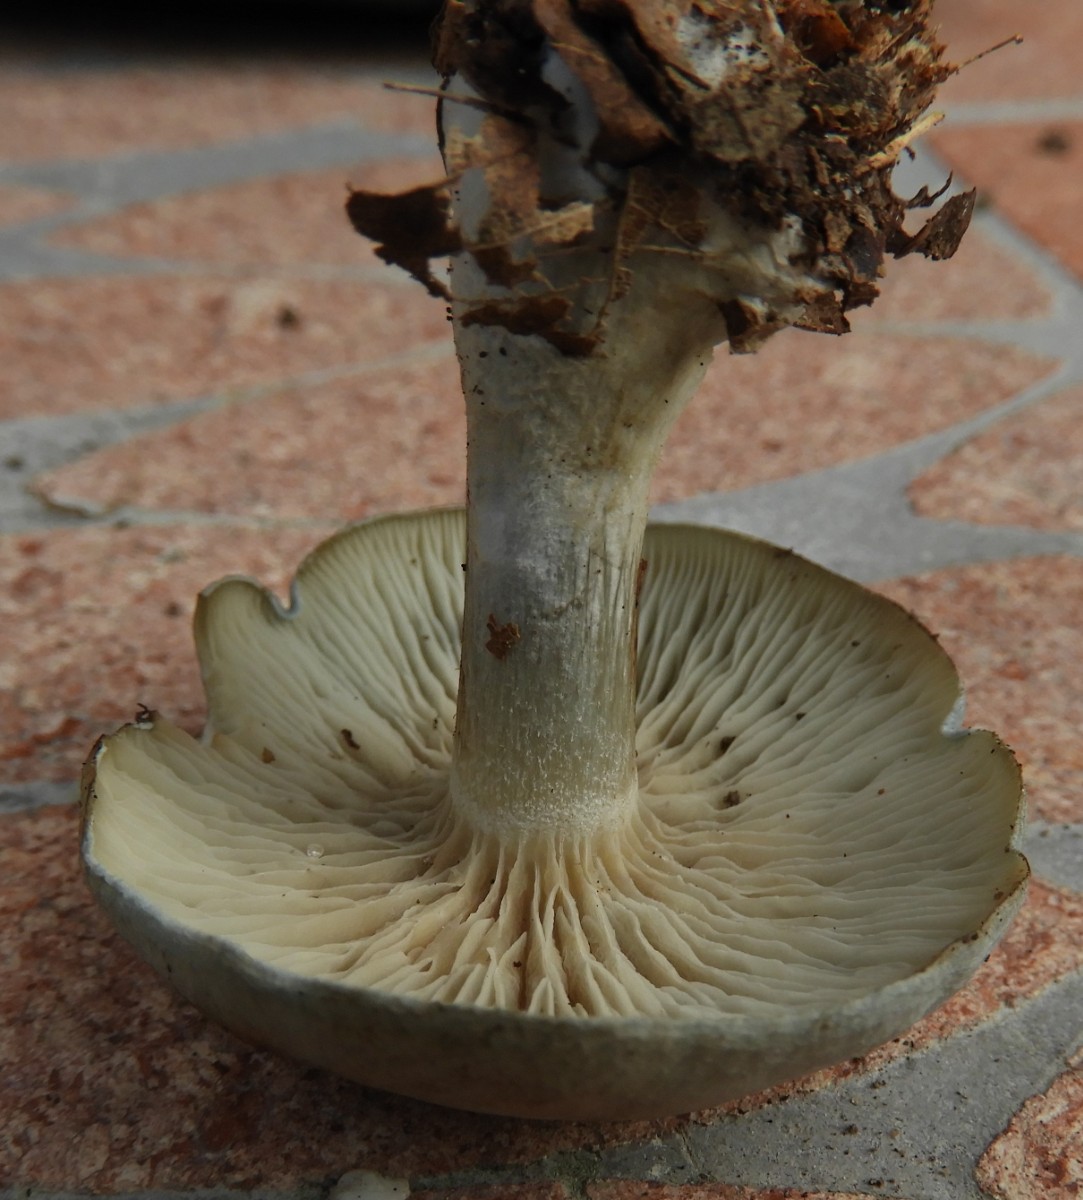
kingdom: Fungi
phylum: Basidiomycota
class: Agaricomycetes
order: Agaricales
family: Tricholomataceae
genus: Clitocybe
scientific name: Clitocybe odora
